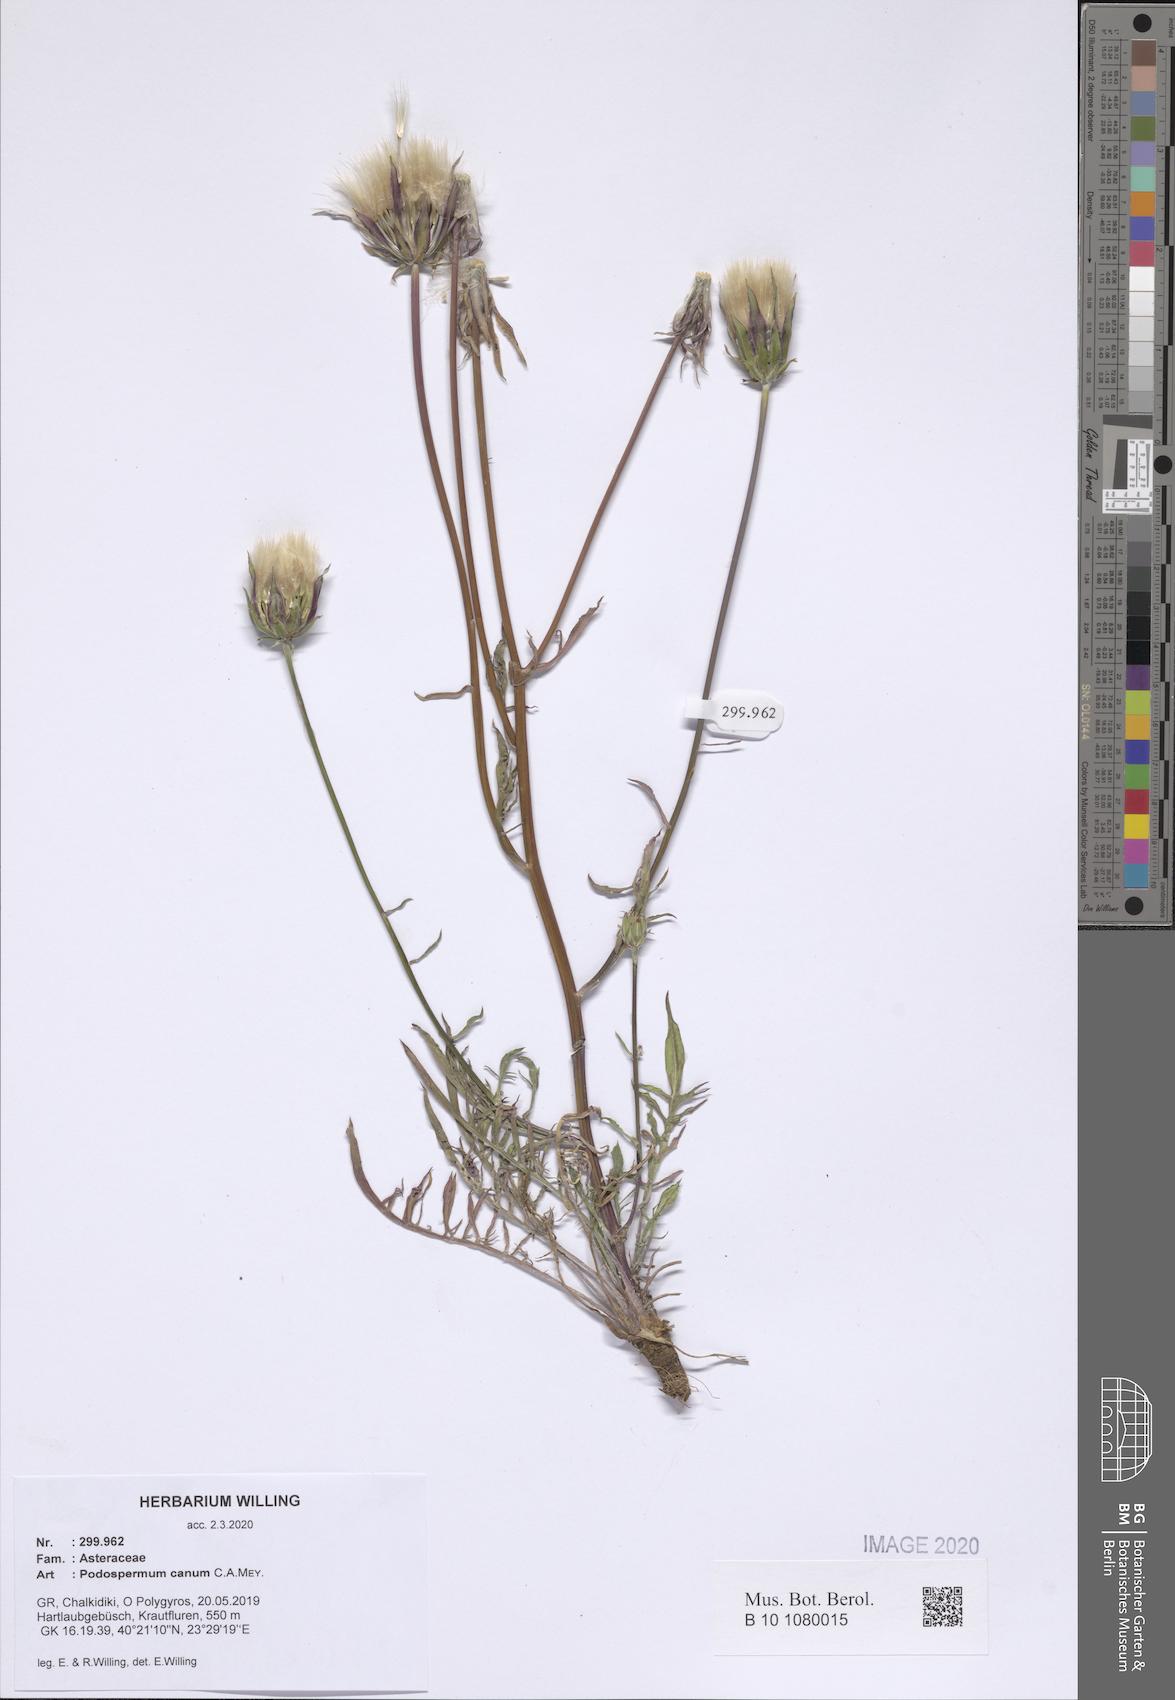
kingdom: Plantae
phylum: Tracheophyta
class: Magnoliopsida
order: Asterales
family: Asteraceae
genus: Scorzonera
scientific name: Scorzonera cana
